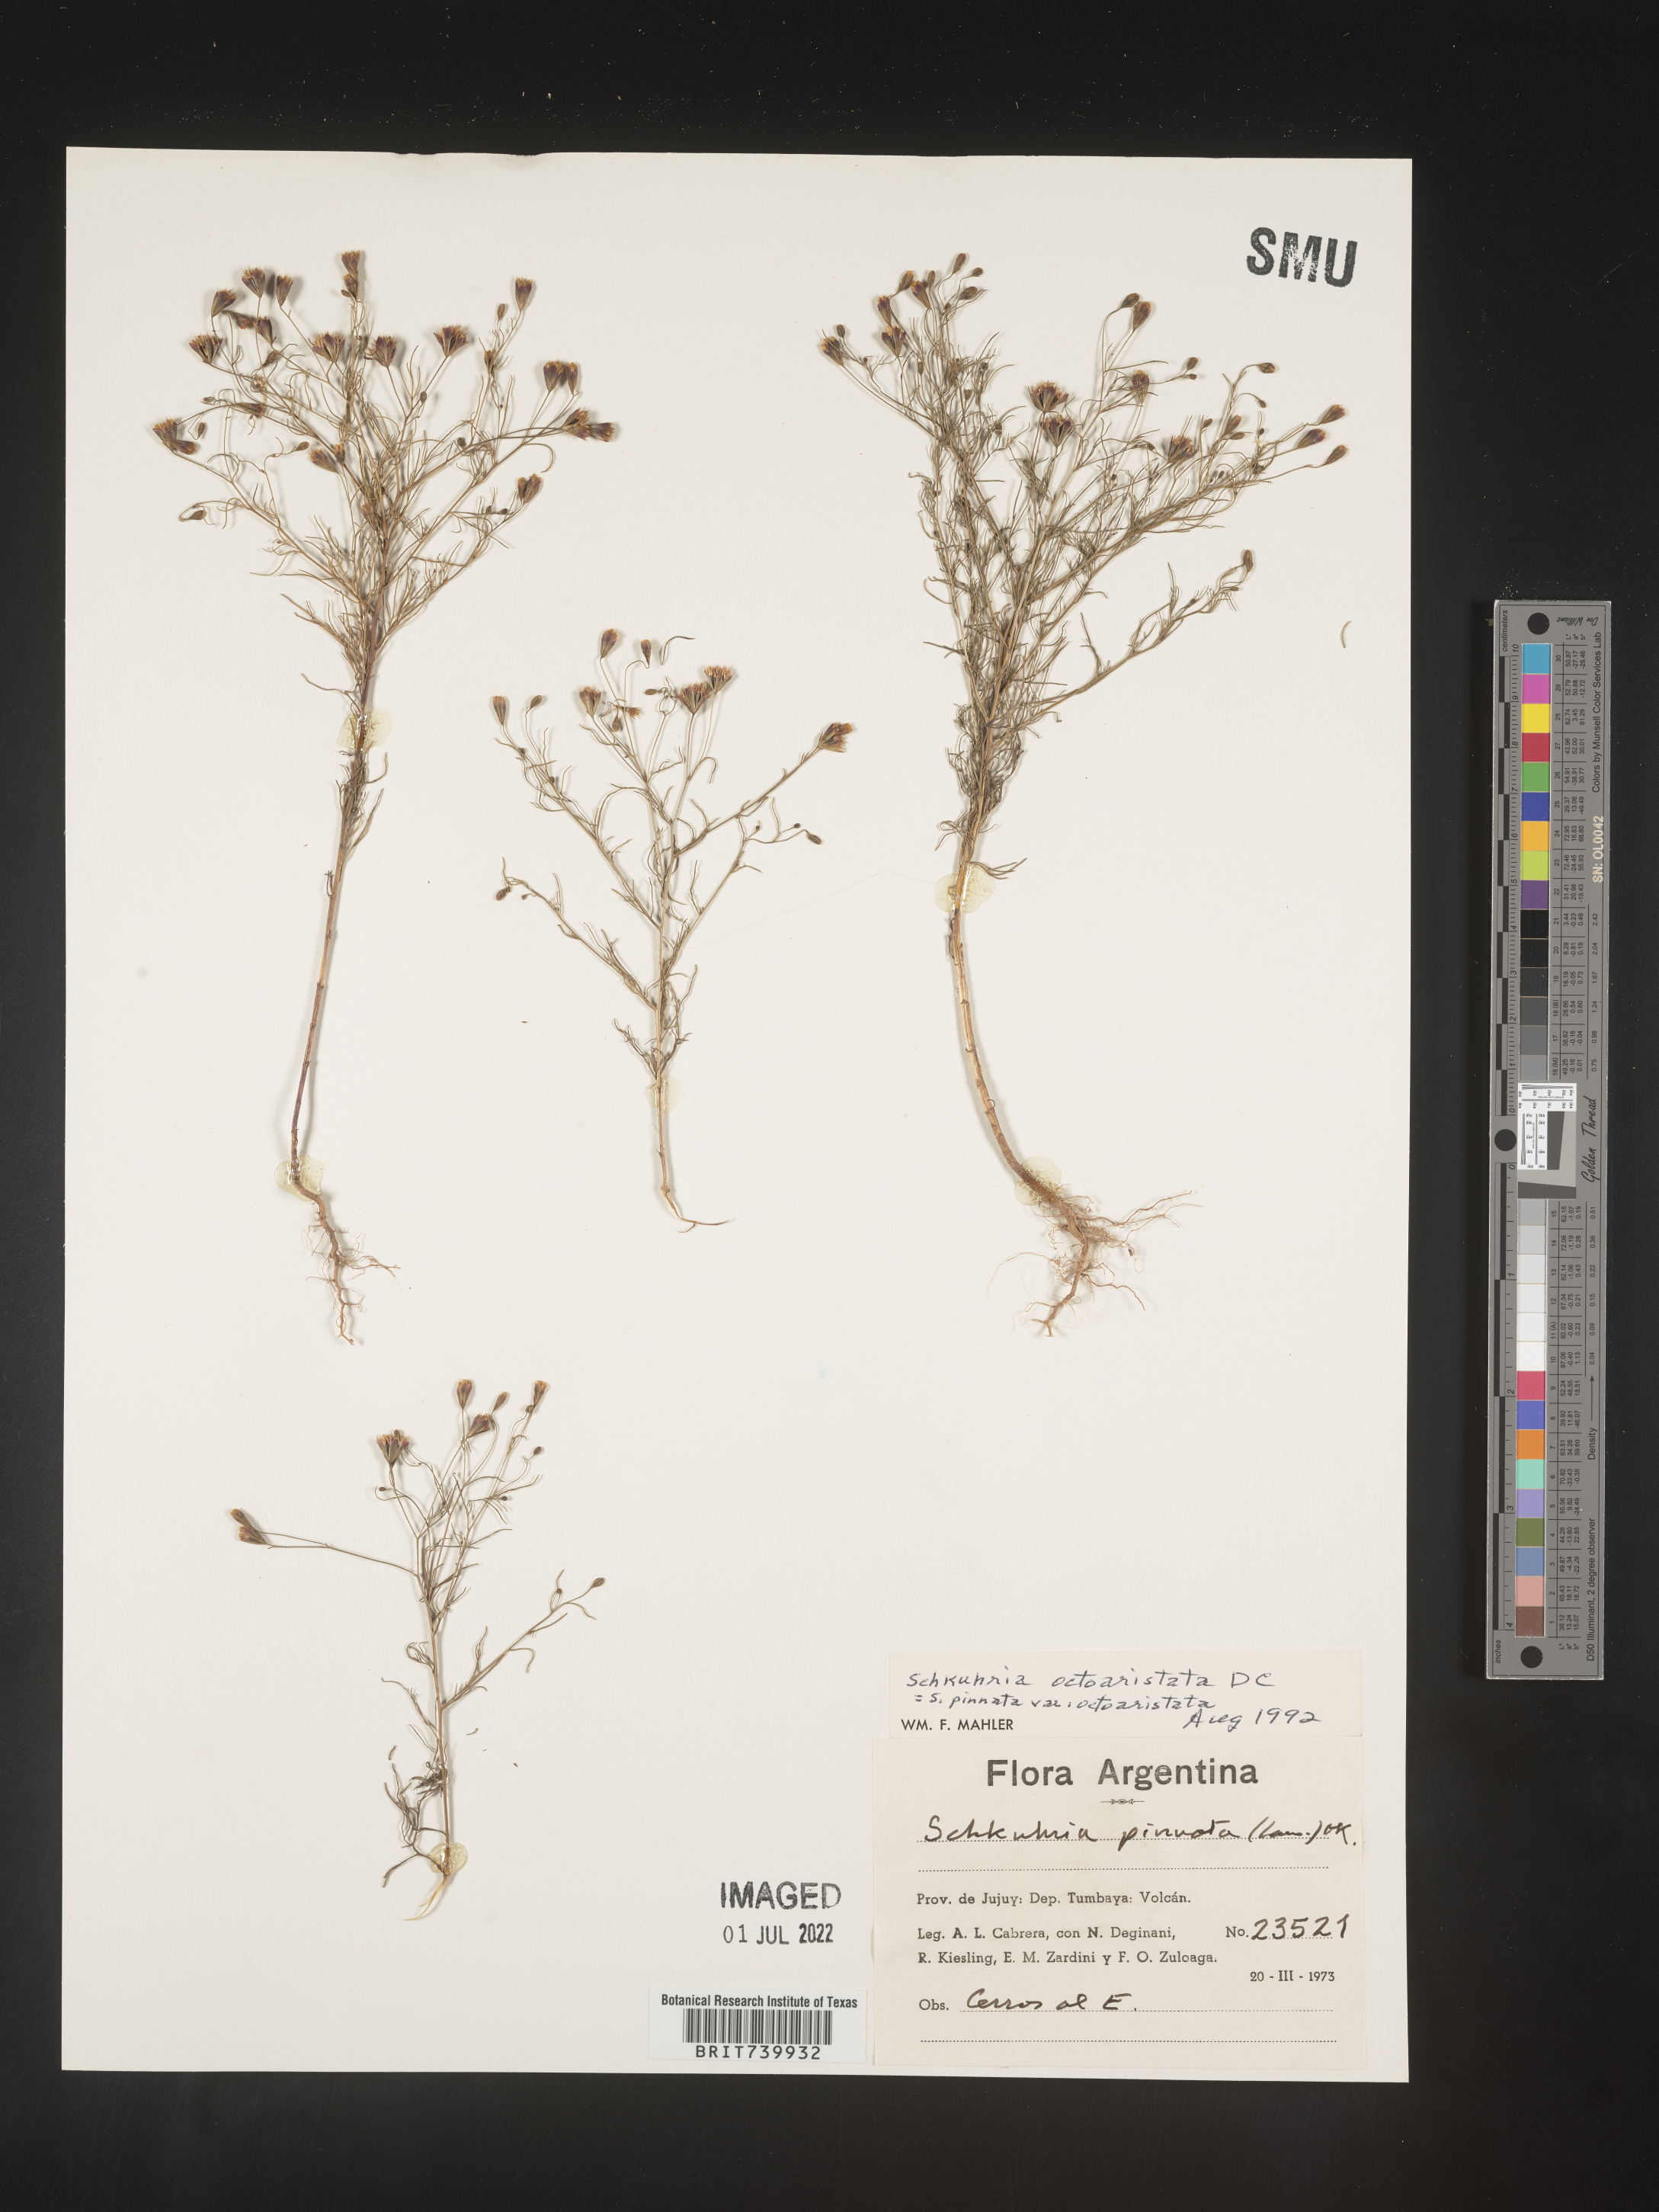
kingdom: Plantae
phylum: Tracheophyta
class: Magnoliopsida
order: Asterales
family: Asteraceae
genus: Schkuhria
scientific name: Schkuhria
